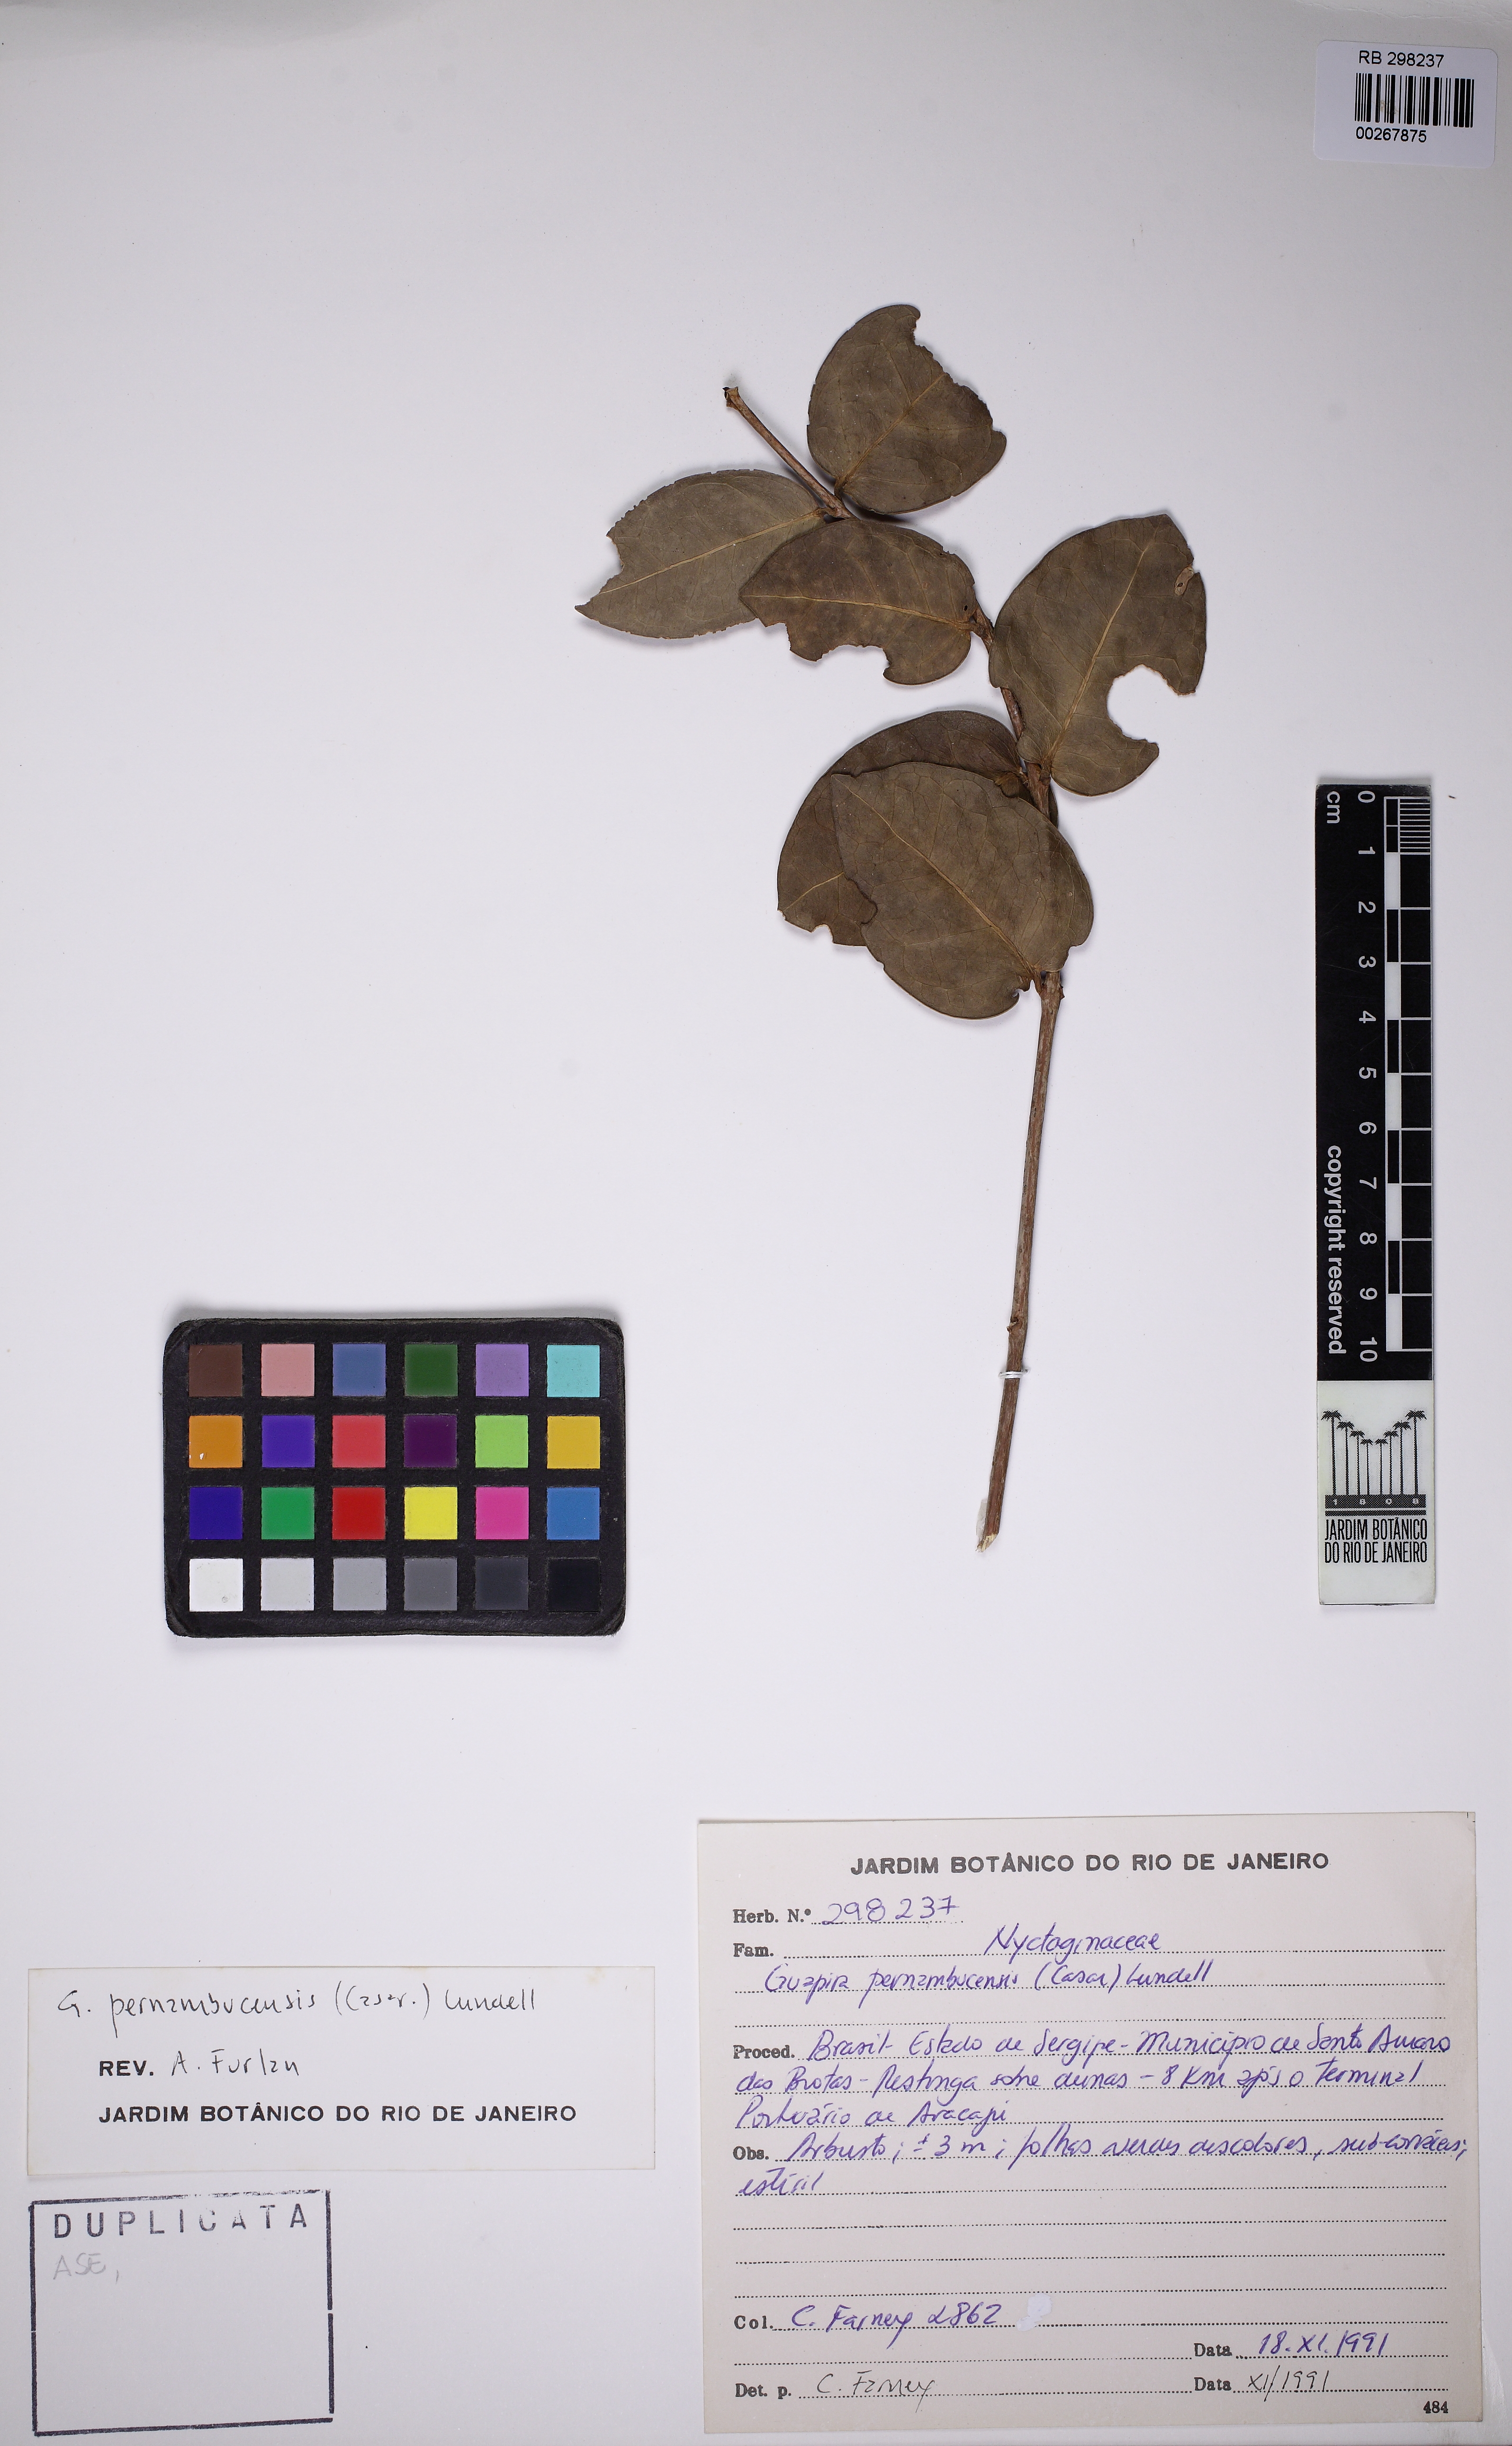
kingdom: Plantae
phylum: Tracheophyta
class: Magnoliopsida
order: Caryophyllales
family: Nyctaginaceae
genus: Guapira
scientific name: Guapira pernambucensis
